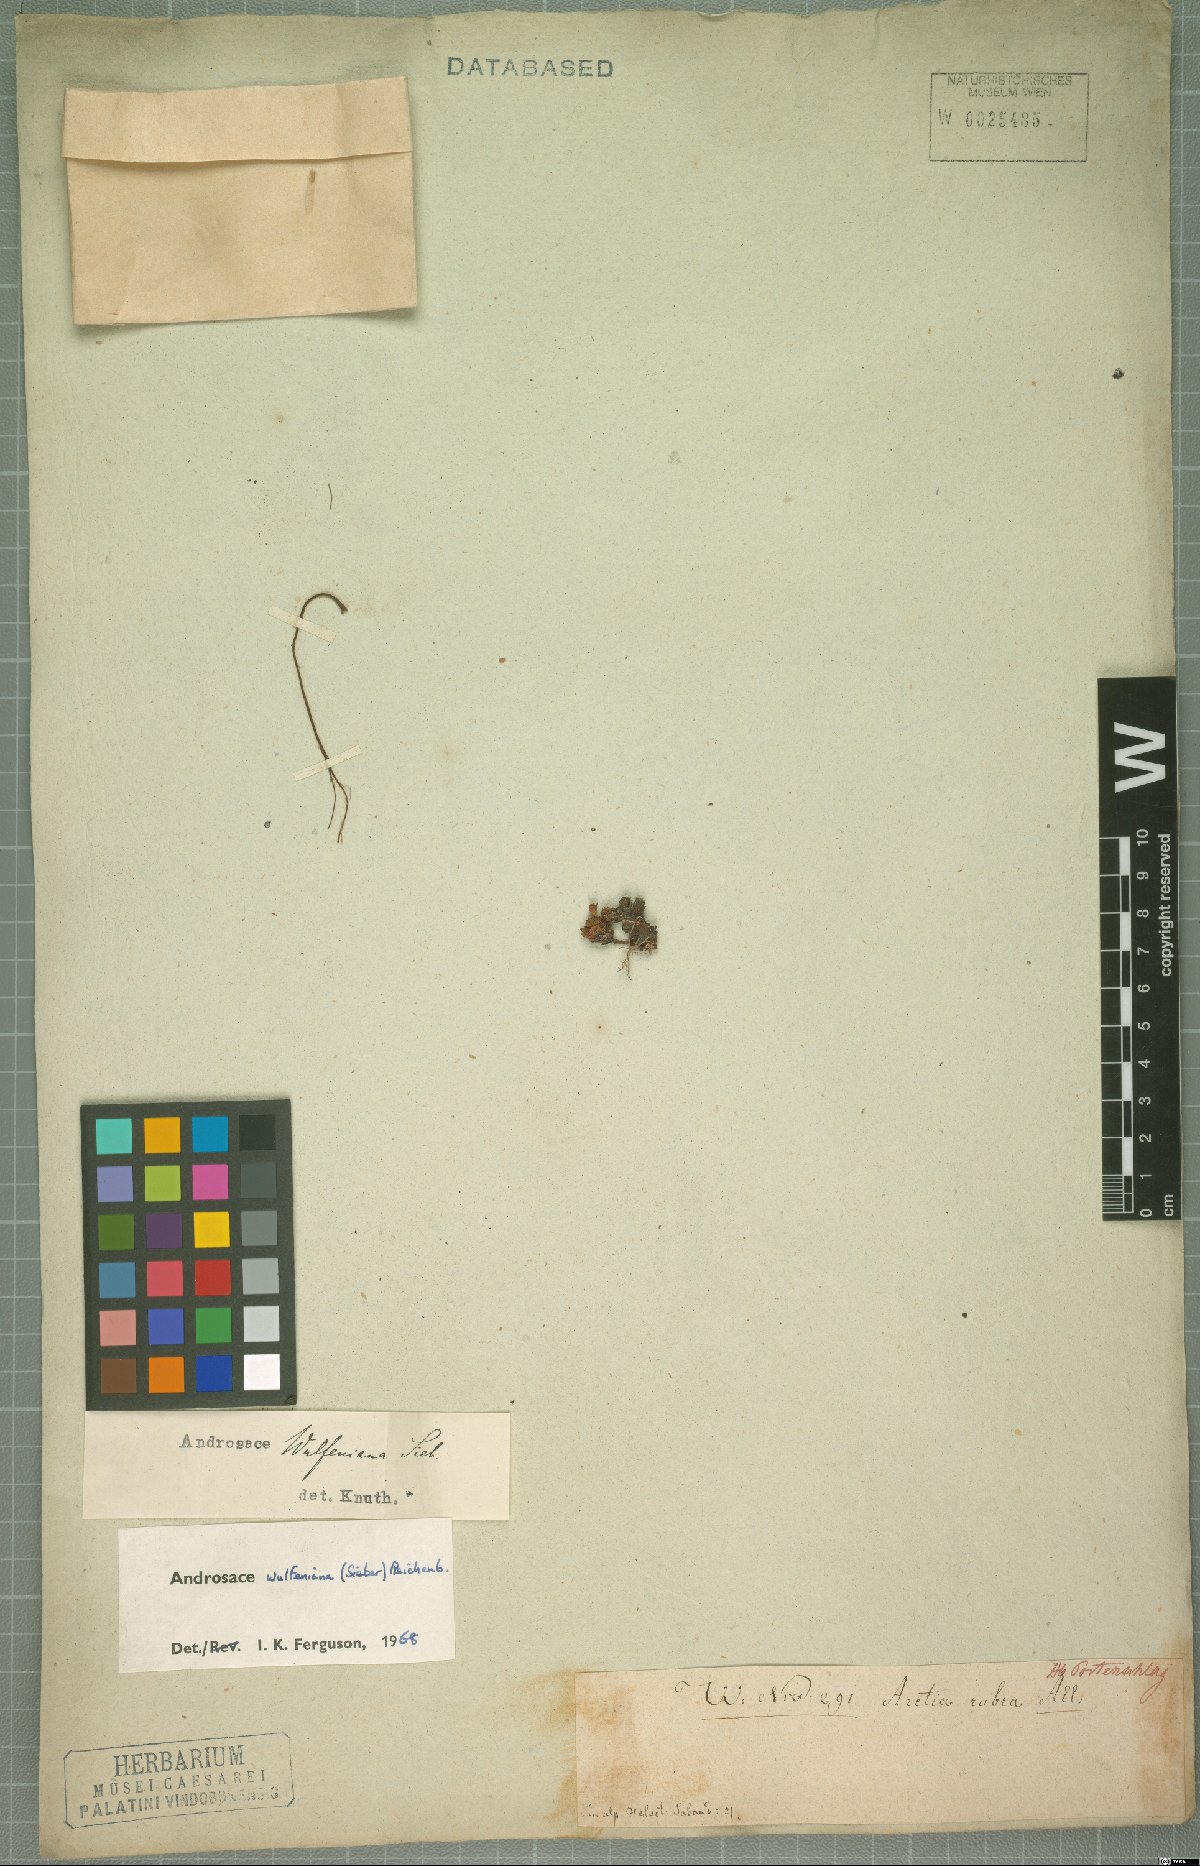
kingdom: Plantae
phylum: Tracheophyta
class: Magnoliopsida
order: Ericales
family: Primulaceae
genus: Androsace
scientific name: Androsace wulfeniana
